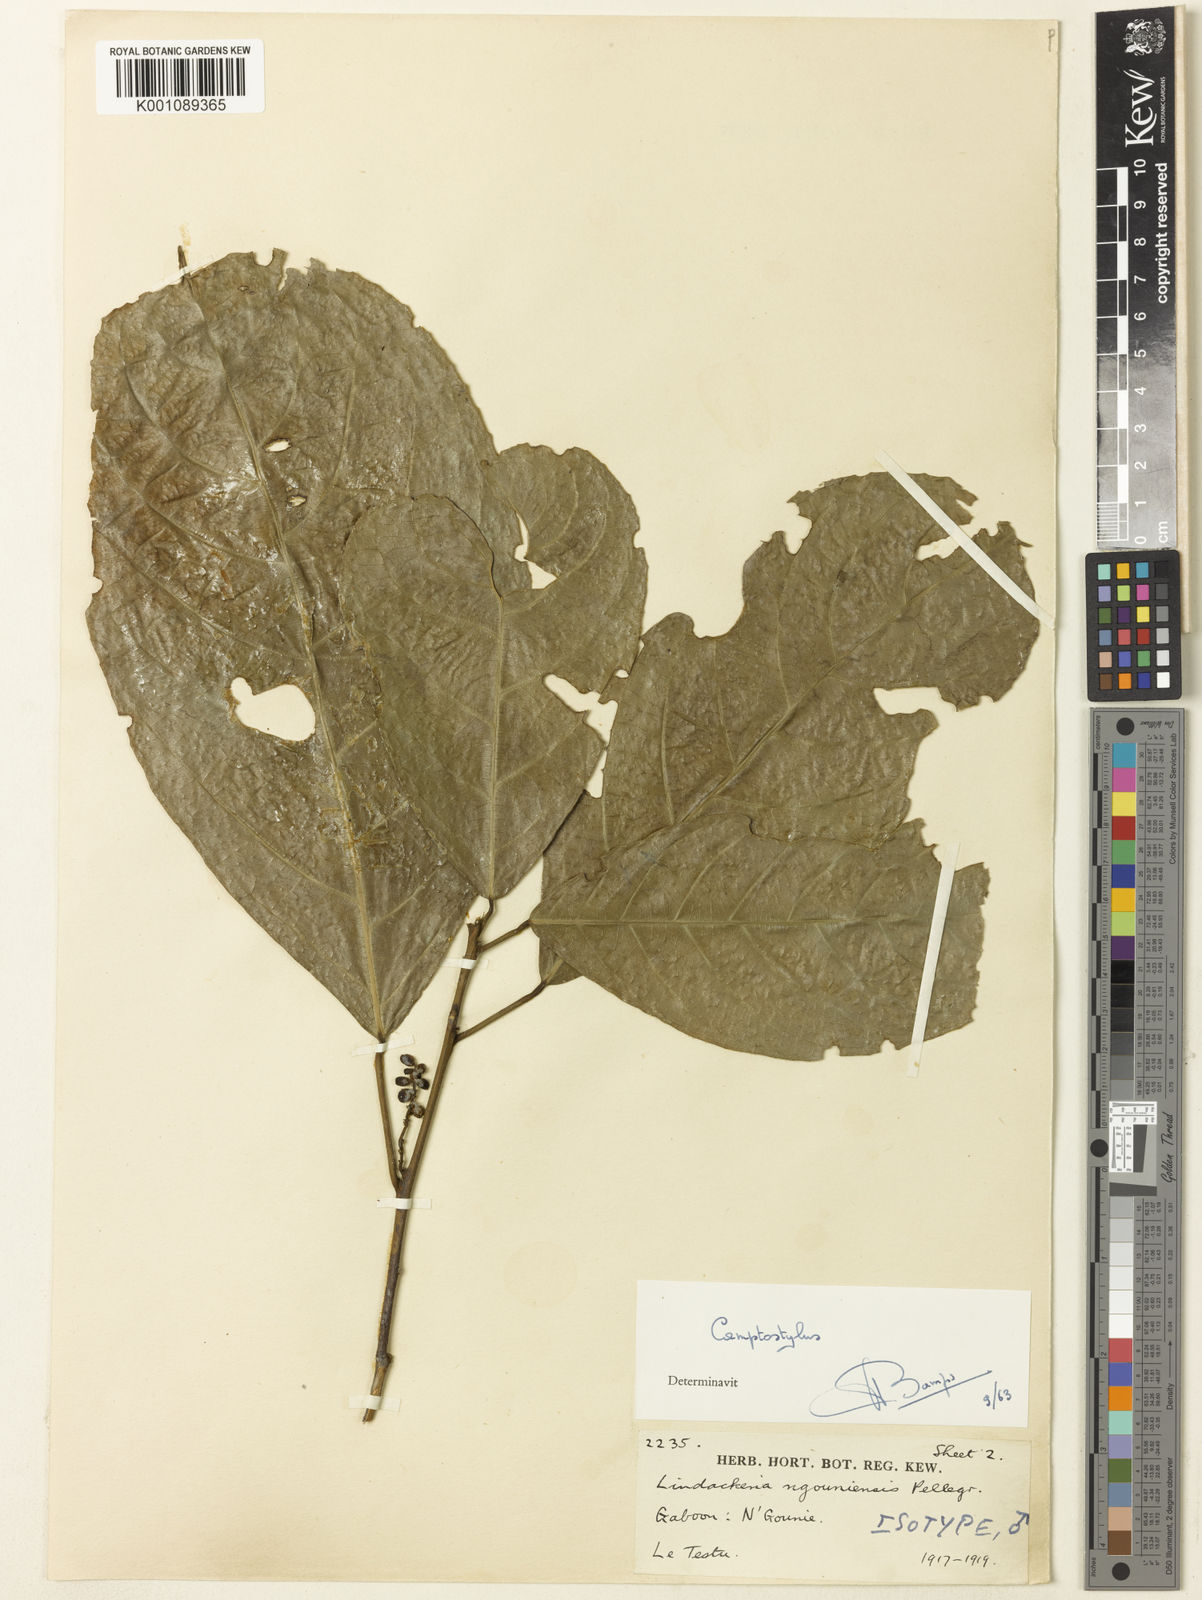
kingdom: Plantae
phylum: Tracheophyta
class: Magnoliopsida
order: Malpighiales
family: Achariaceae
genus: Lindackeria
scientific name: Lindackeria ngounyensis
